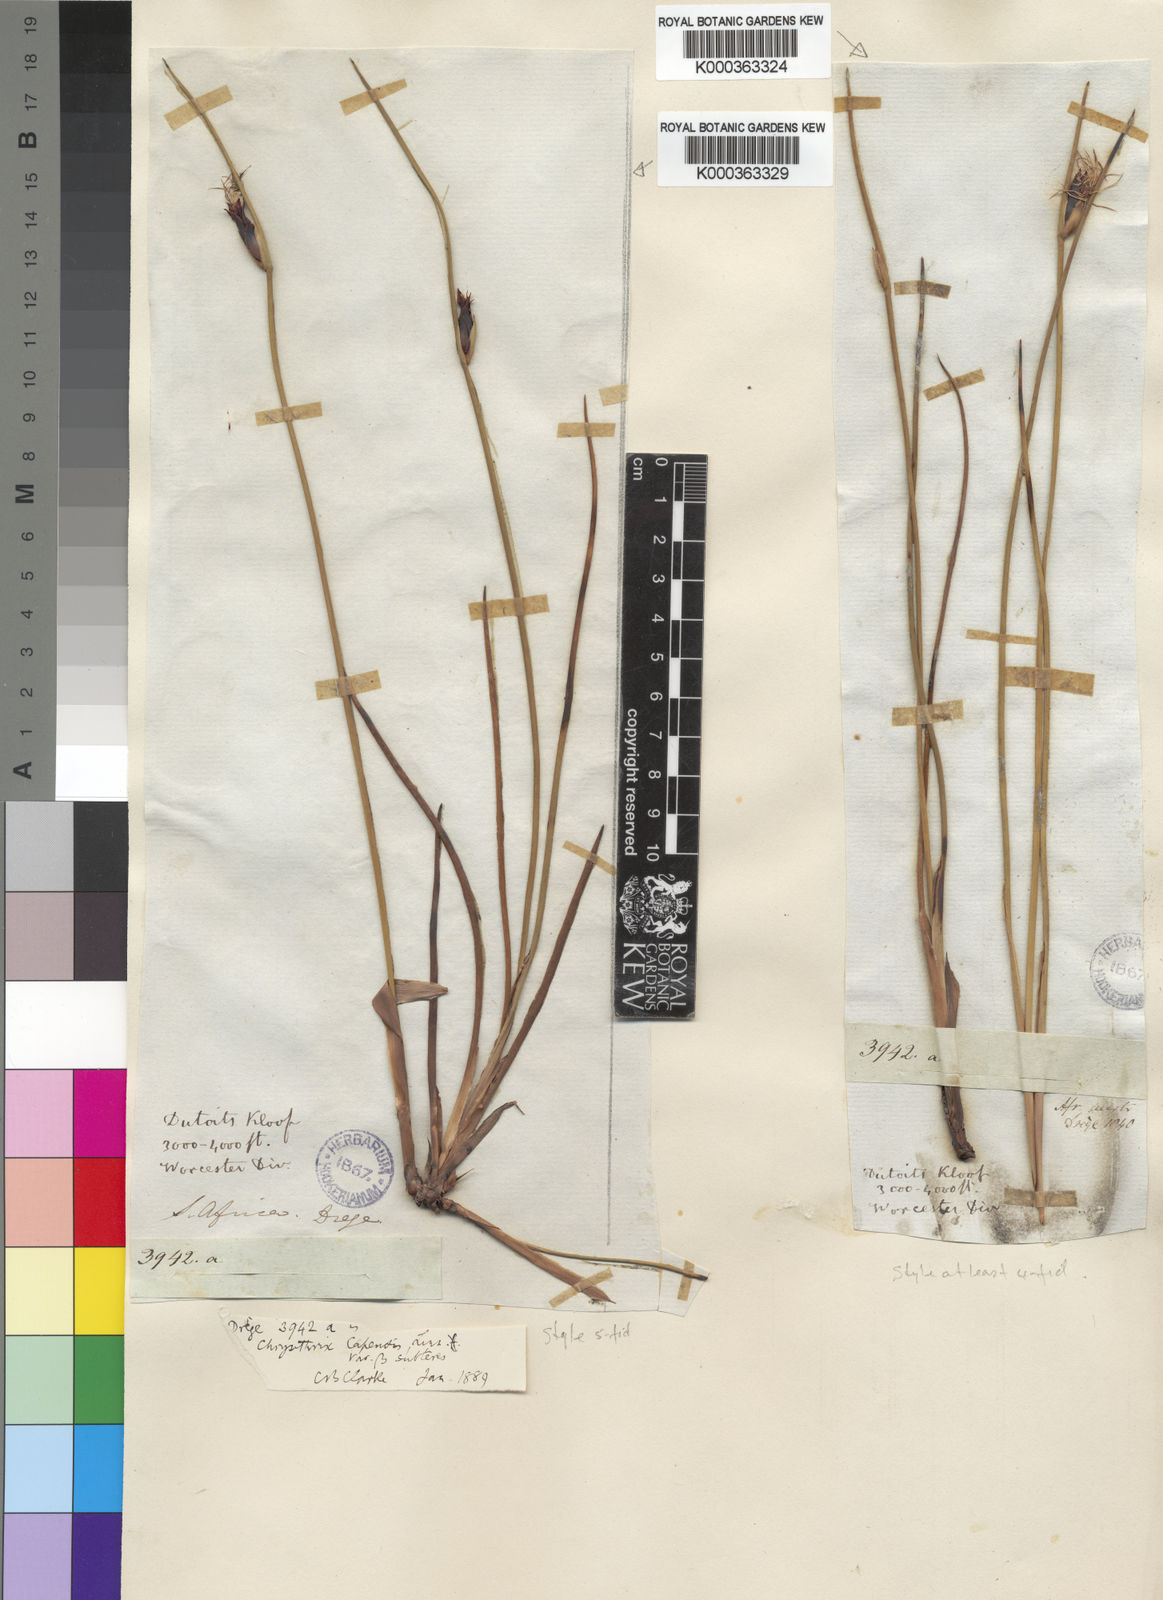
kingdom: Plantae
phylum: Tracheophyta
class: Liliopsida
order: Poales
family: Cyperaceae
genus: Chrysitrix
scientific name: Chrysitrix junciformis
